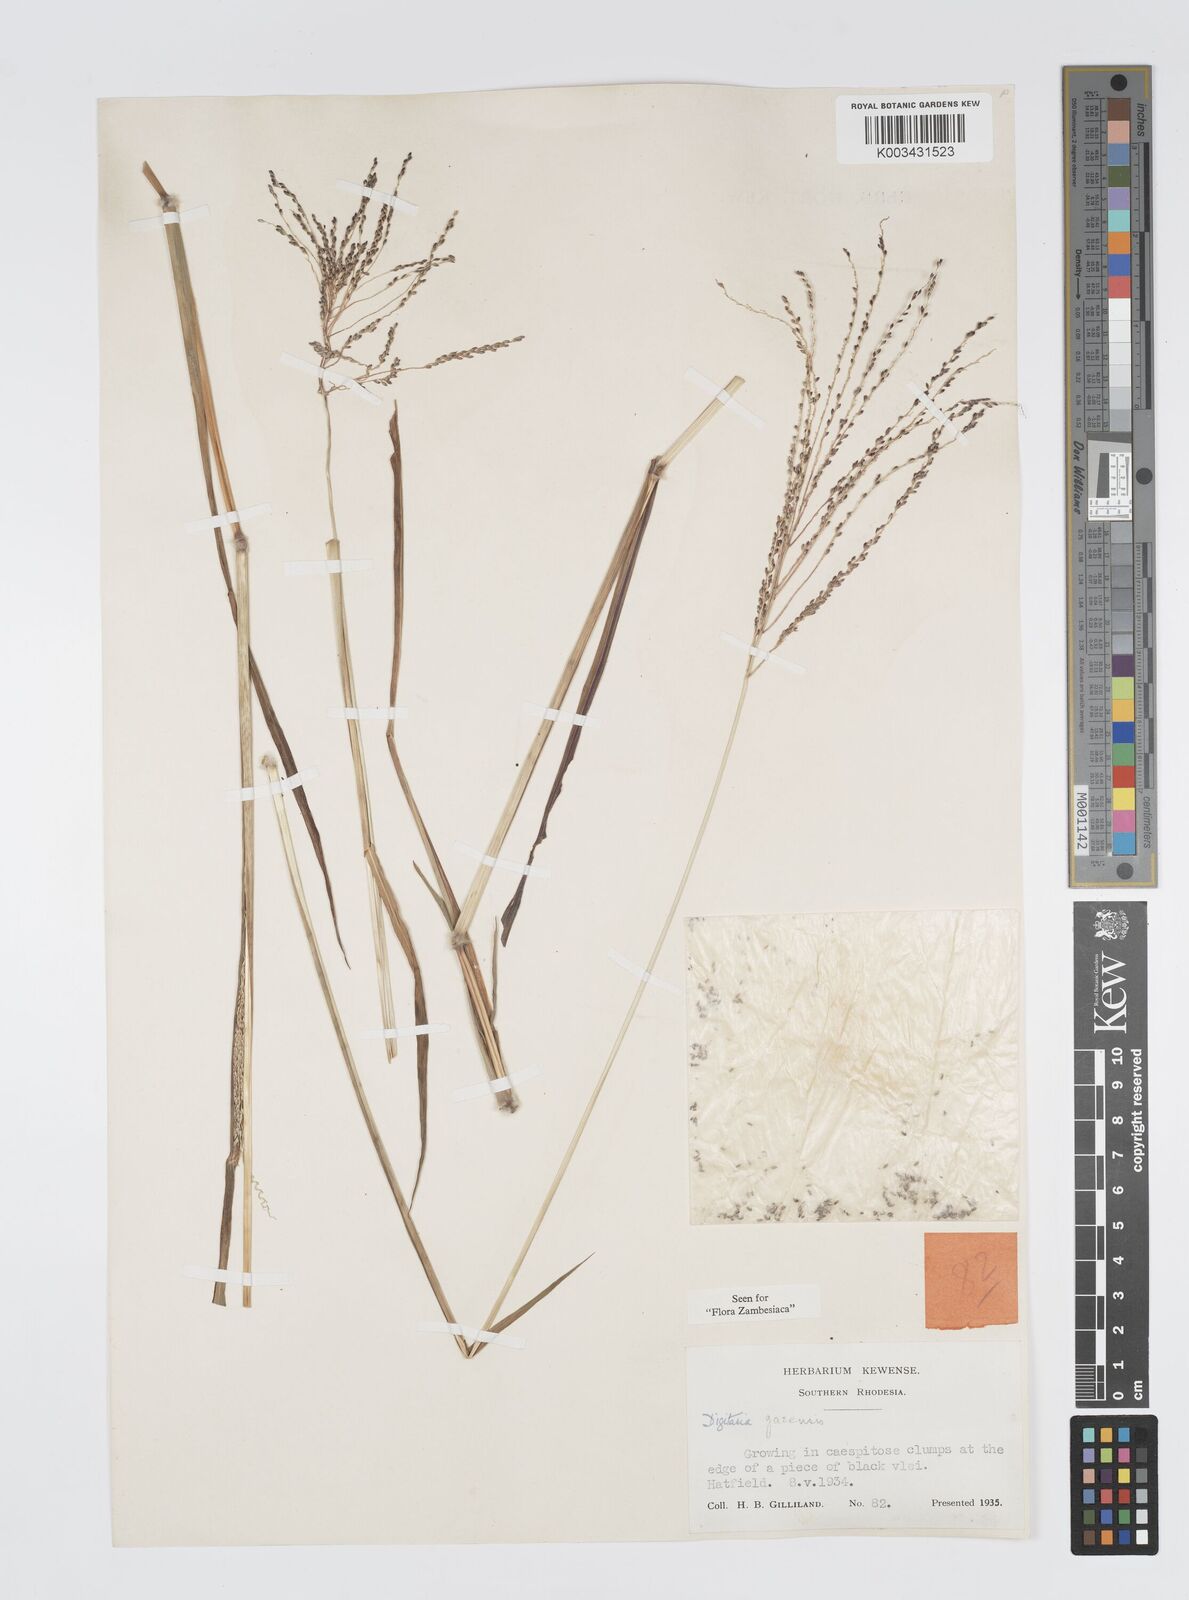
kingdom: Plantae
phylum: Tracheophyta
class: Liliopsida
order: Poales
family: Poaceae
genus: Digitaria
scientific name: Digitaria gazensis
